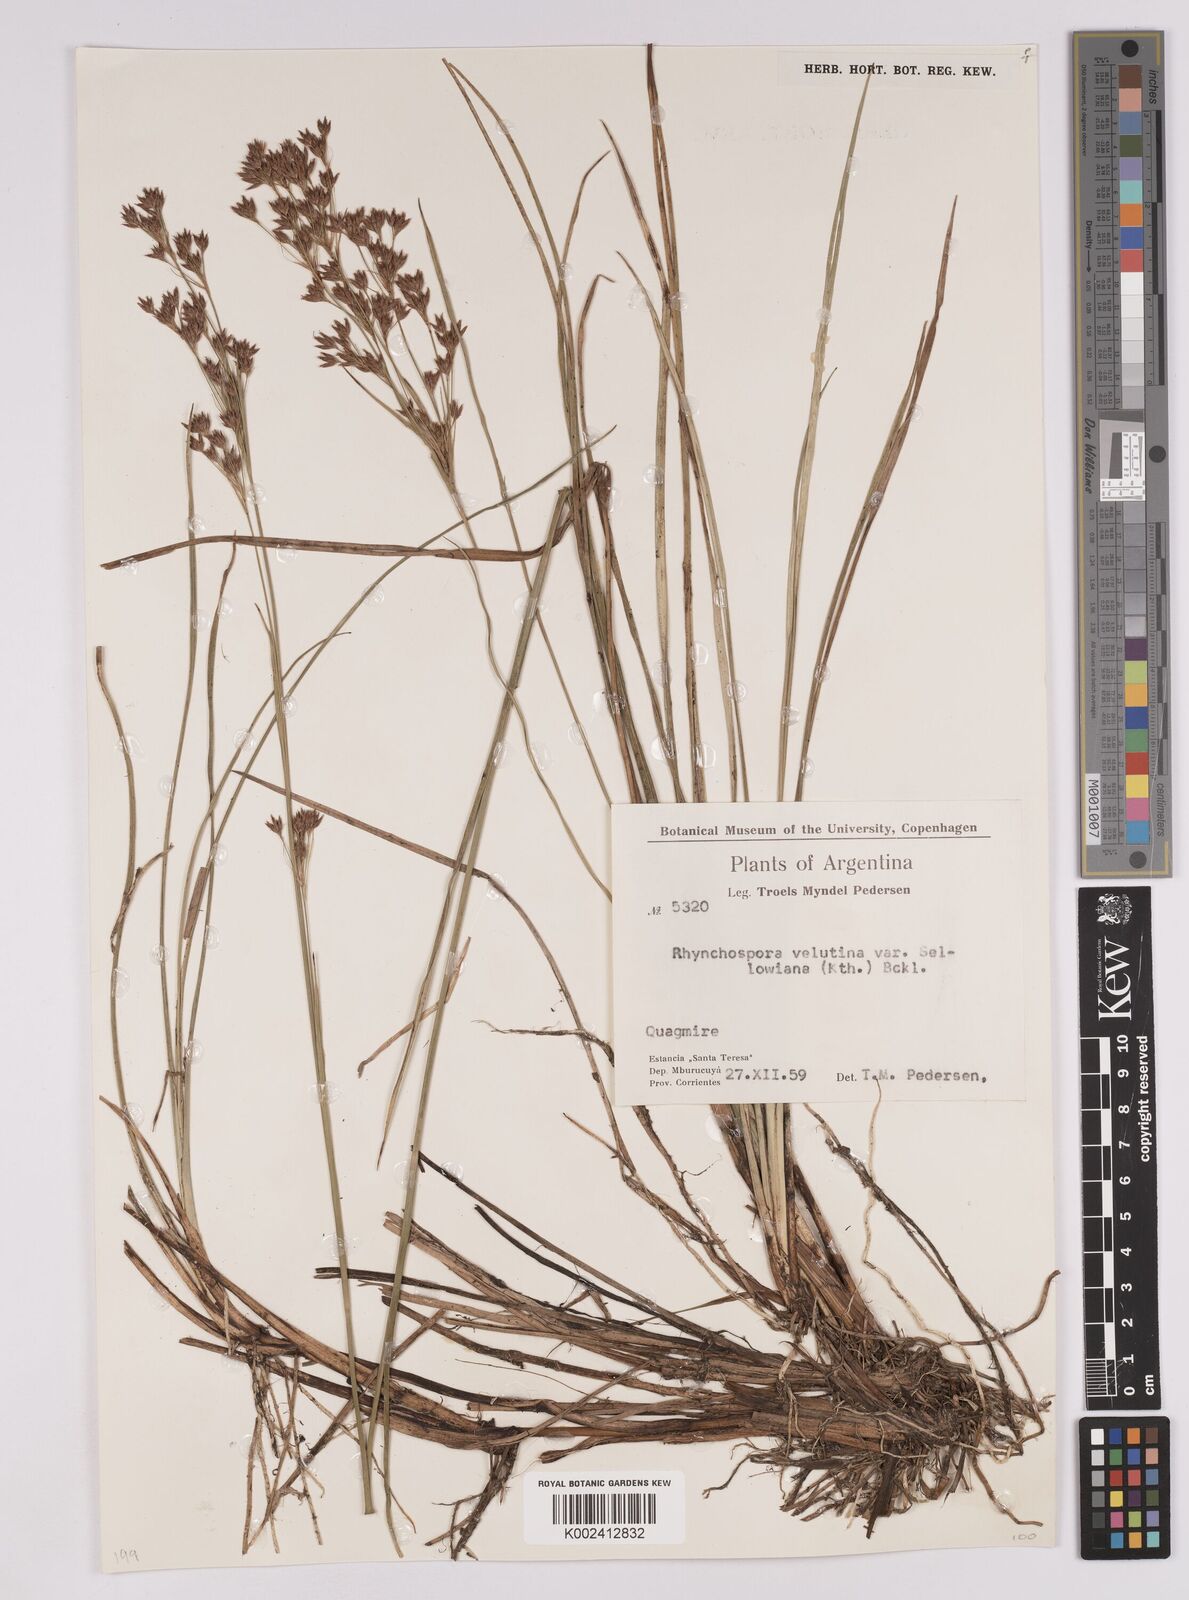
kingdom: Plantae
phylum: Tracheophyta
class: Liliopsida
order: Poales
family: Cyperaceae
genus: Rhynchospora
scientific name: Rhynchospora robusta
